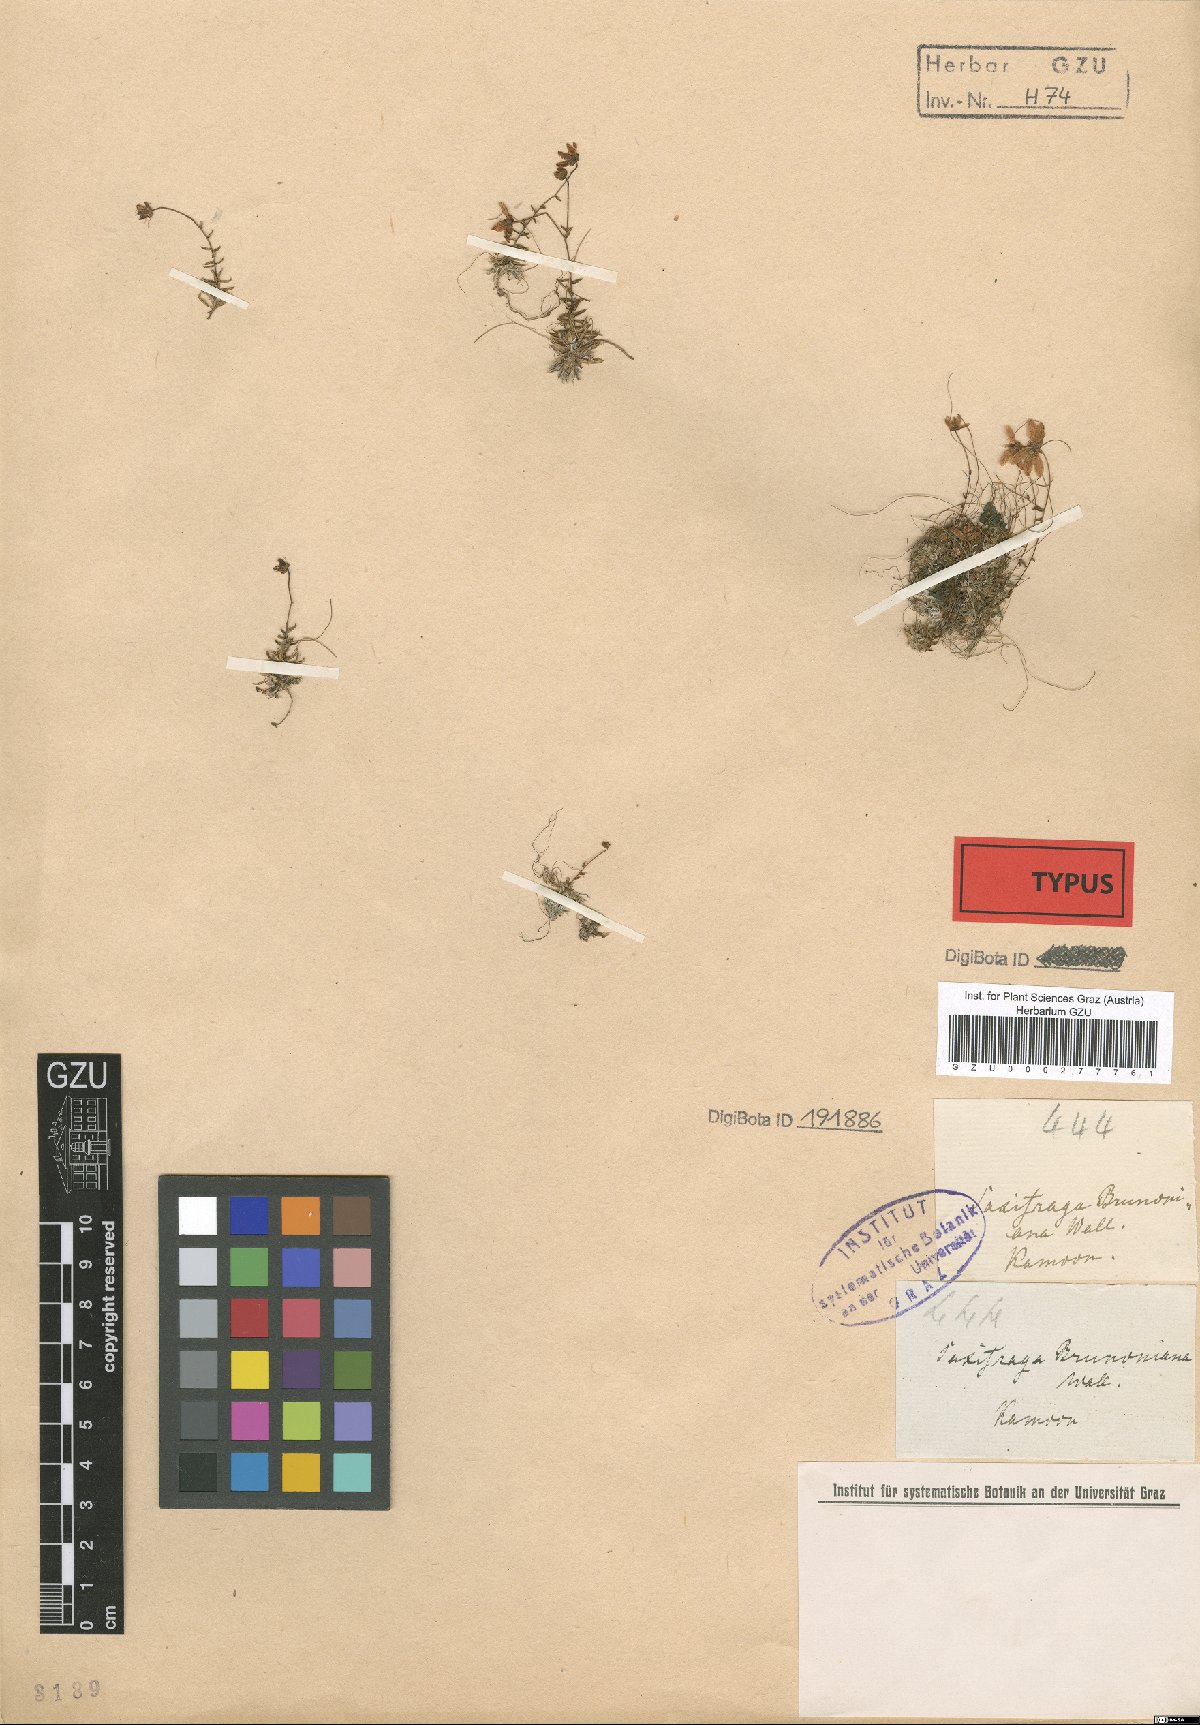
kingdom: Plantae
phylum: Tracheophyta
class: Magnoliopsida
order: Saxifragales
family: Saxifragaceae
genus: Saxifraga
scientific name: Saxifraga brunonis
